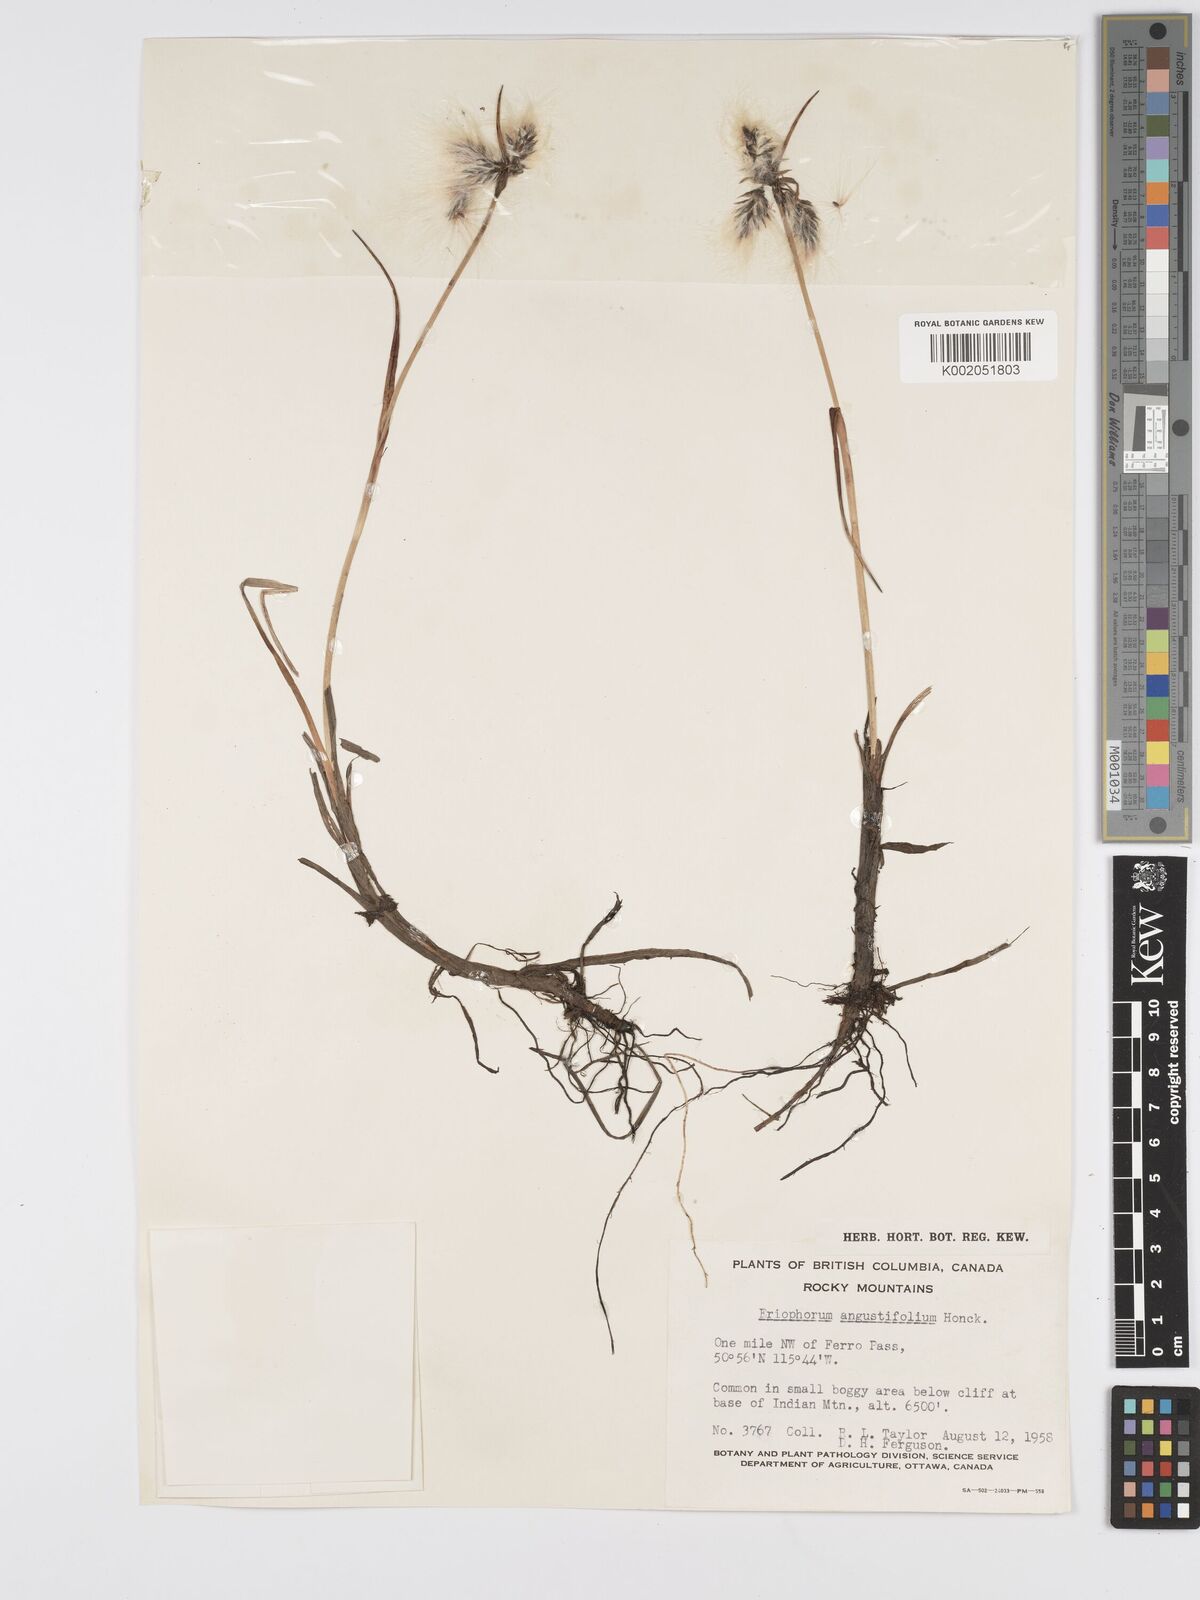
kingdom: Plantae
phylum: Tracheophyta
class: Liliopsida
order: Poales
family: Cyperaceae
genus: Eriophorum
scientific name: Eriophorum angustifolium
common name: Common cottongrass
